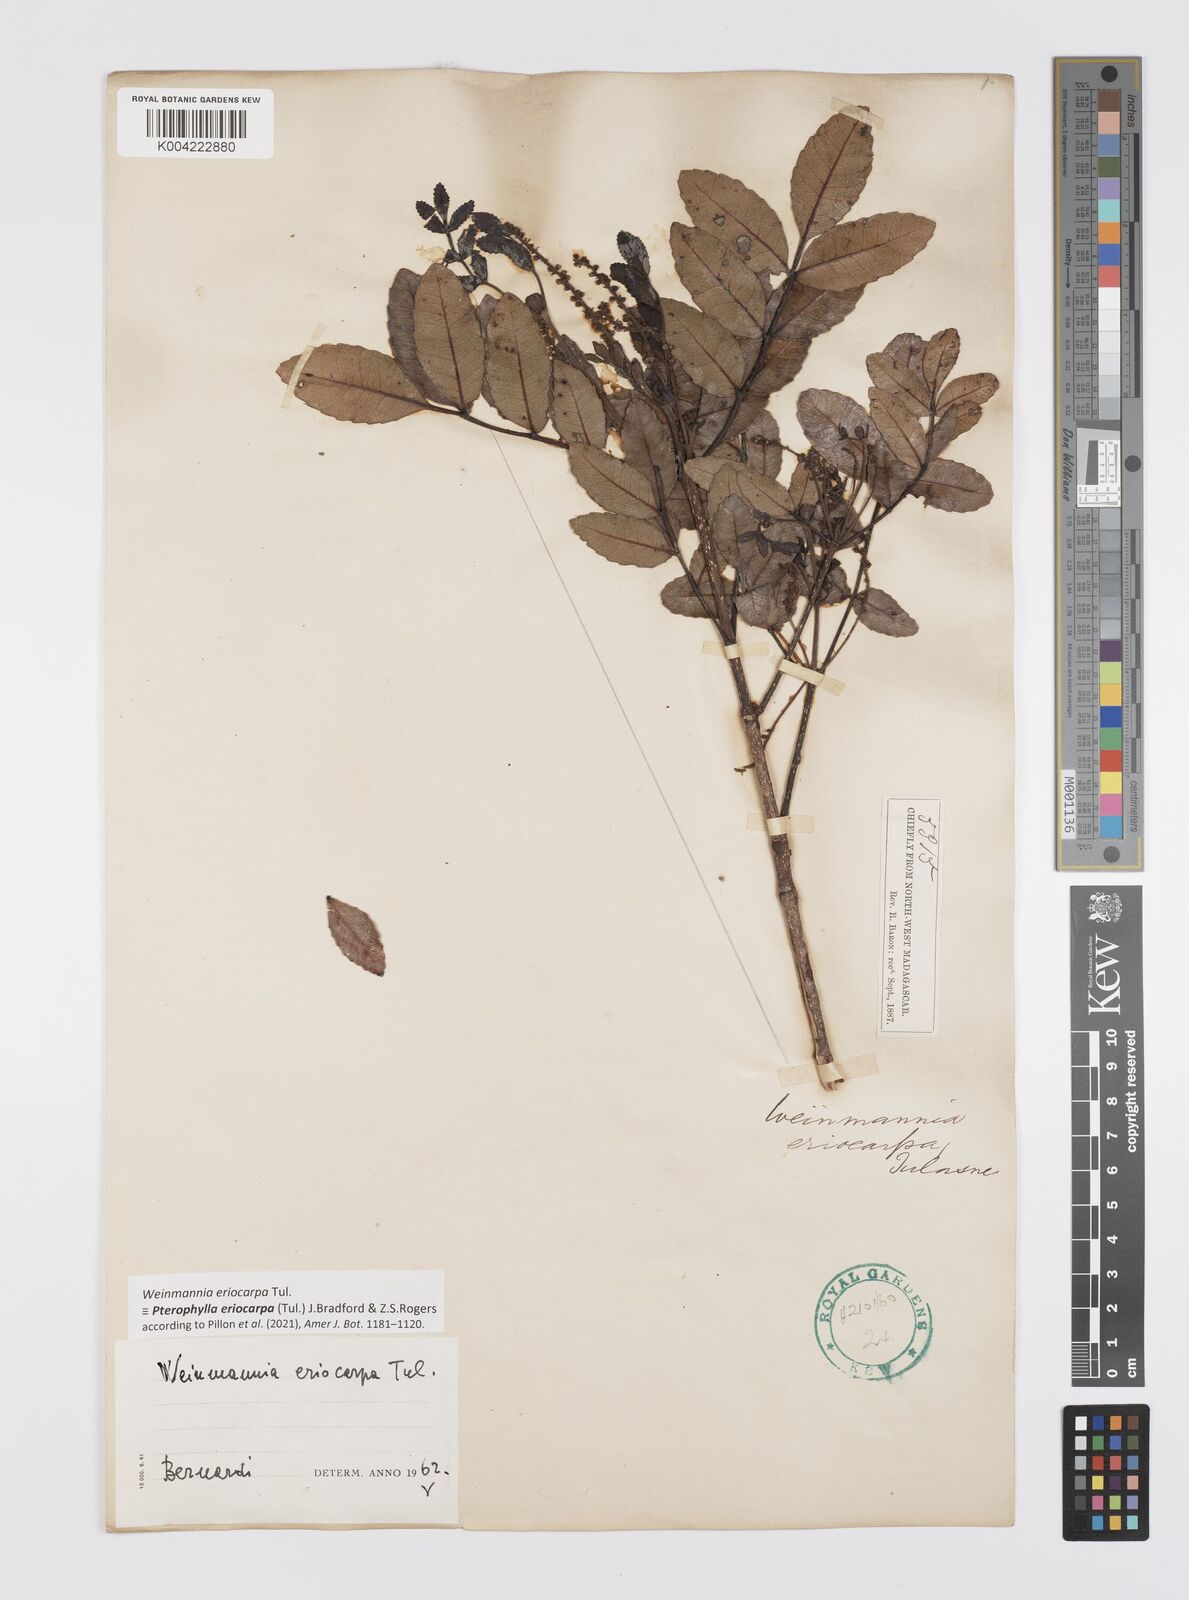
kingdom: Plantae
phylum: Tracheophyta
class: Magnoliopsida
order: Oxalidales
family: Cunoniaceae
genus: Pterophylla
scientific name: Pterophylla eriocarpa
